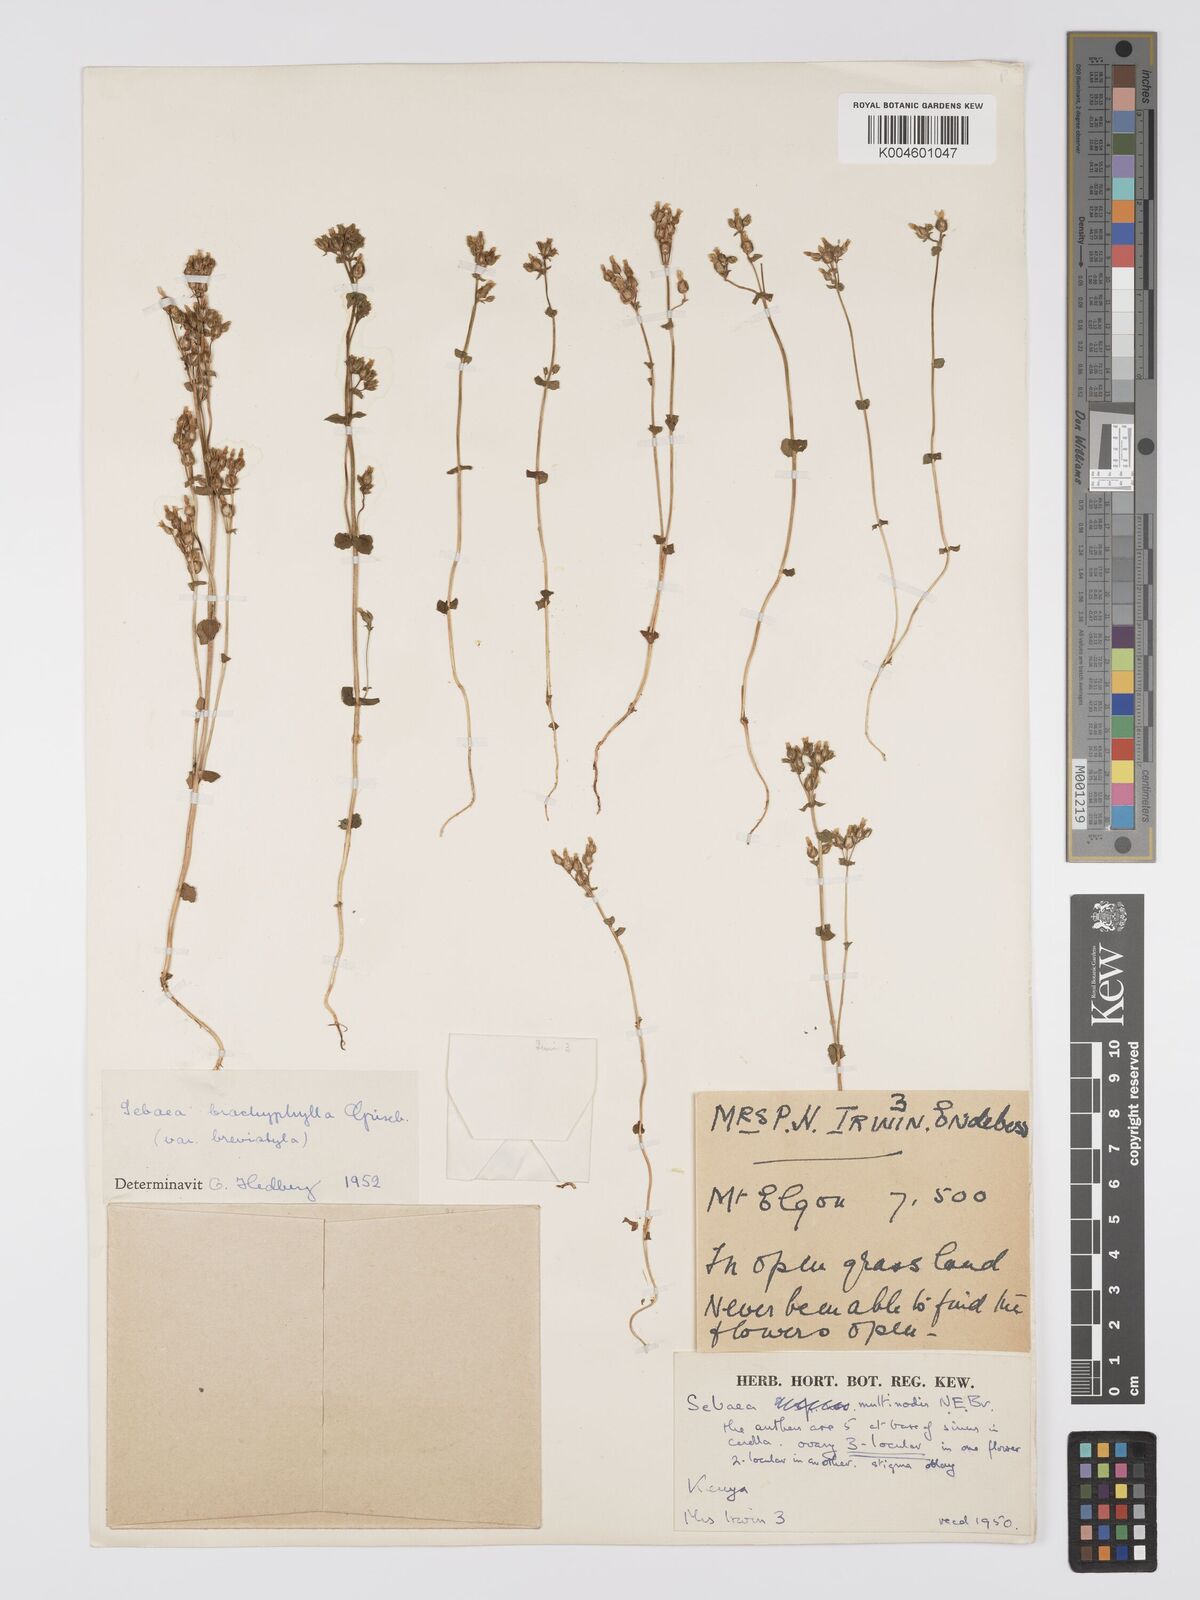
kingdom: Plantae
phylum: Tracheophyta
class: Magnoliopsida
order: Gentianales
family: Gentianaceae
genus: Sebaea
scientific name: Sebaea brachyphylla
